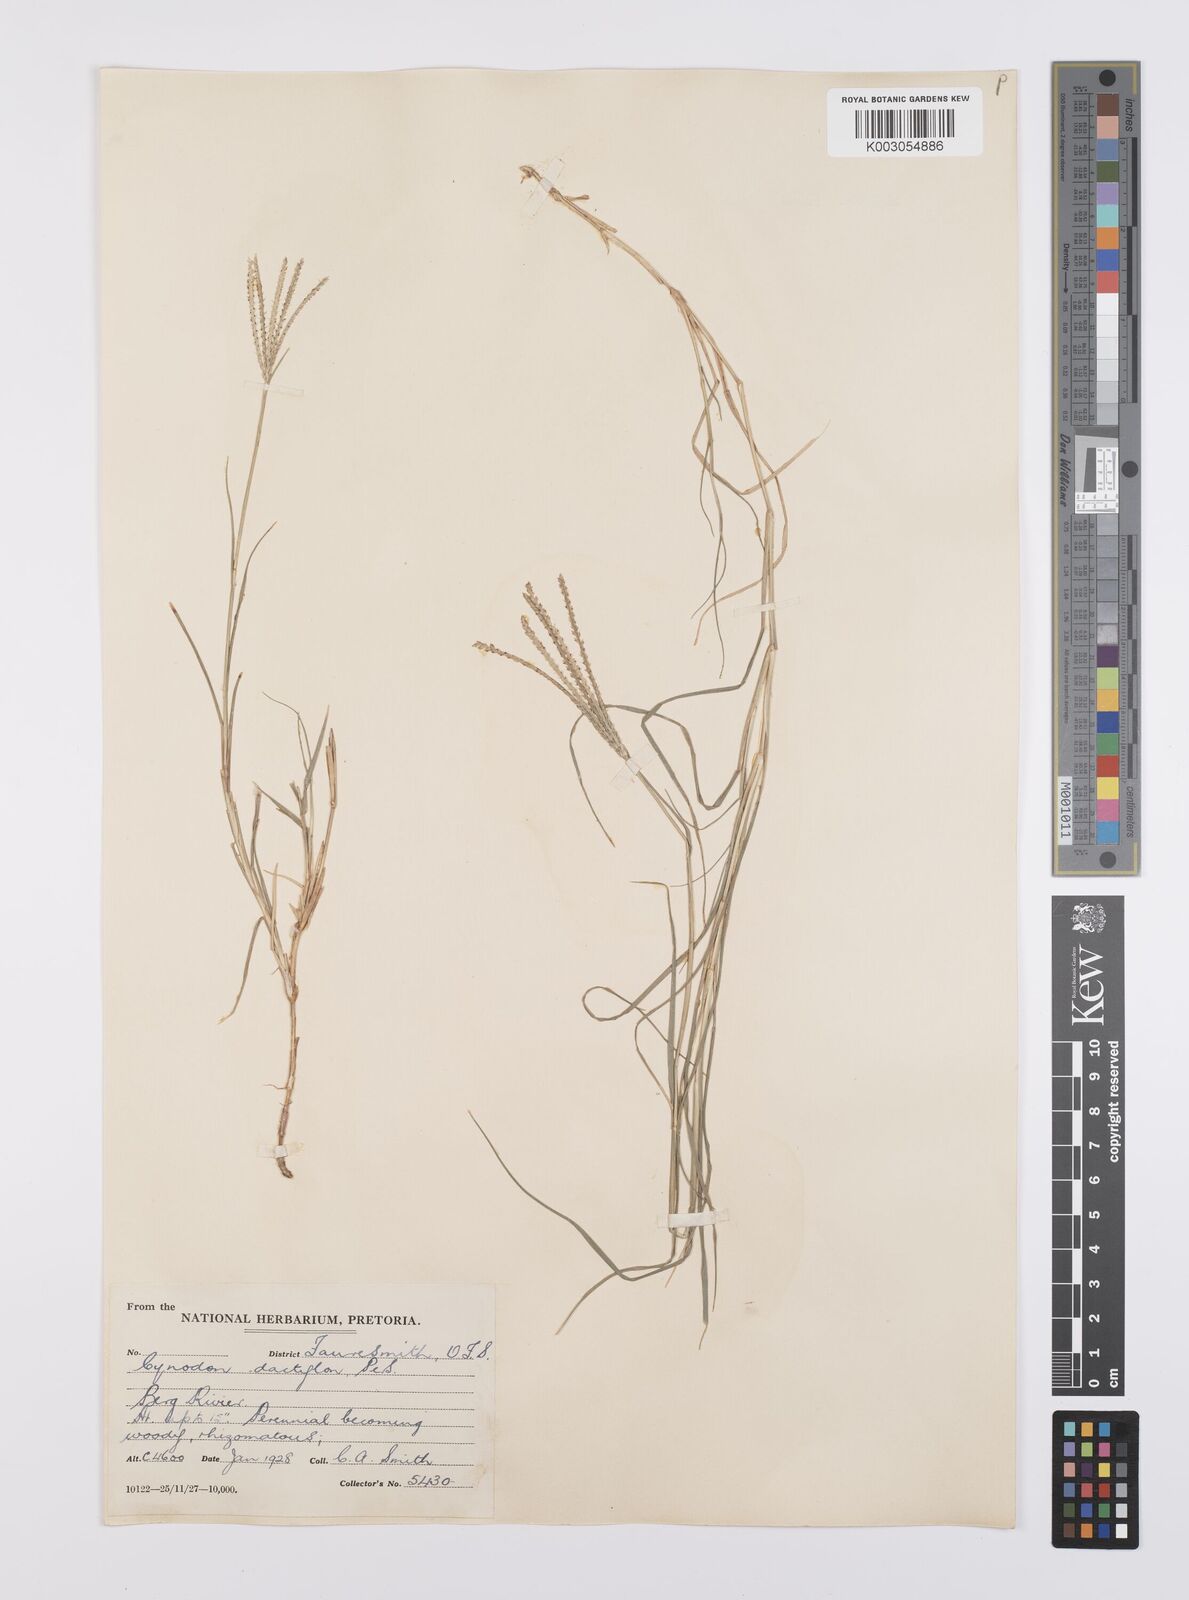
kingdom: Plantae
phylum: Tracheophyta
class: Liliopsida
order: Poales
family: Poaceae
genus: Cynodon
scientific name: Cynodon dactylon
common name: Bermuda grass
